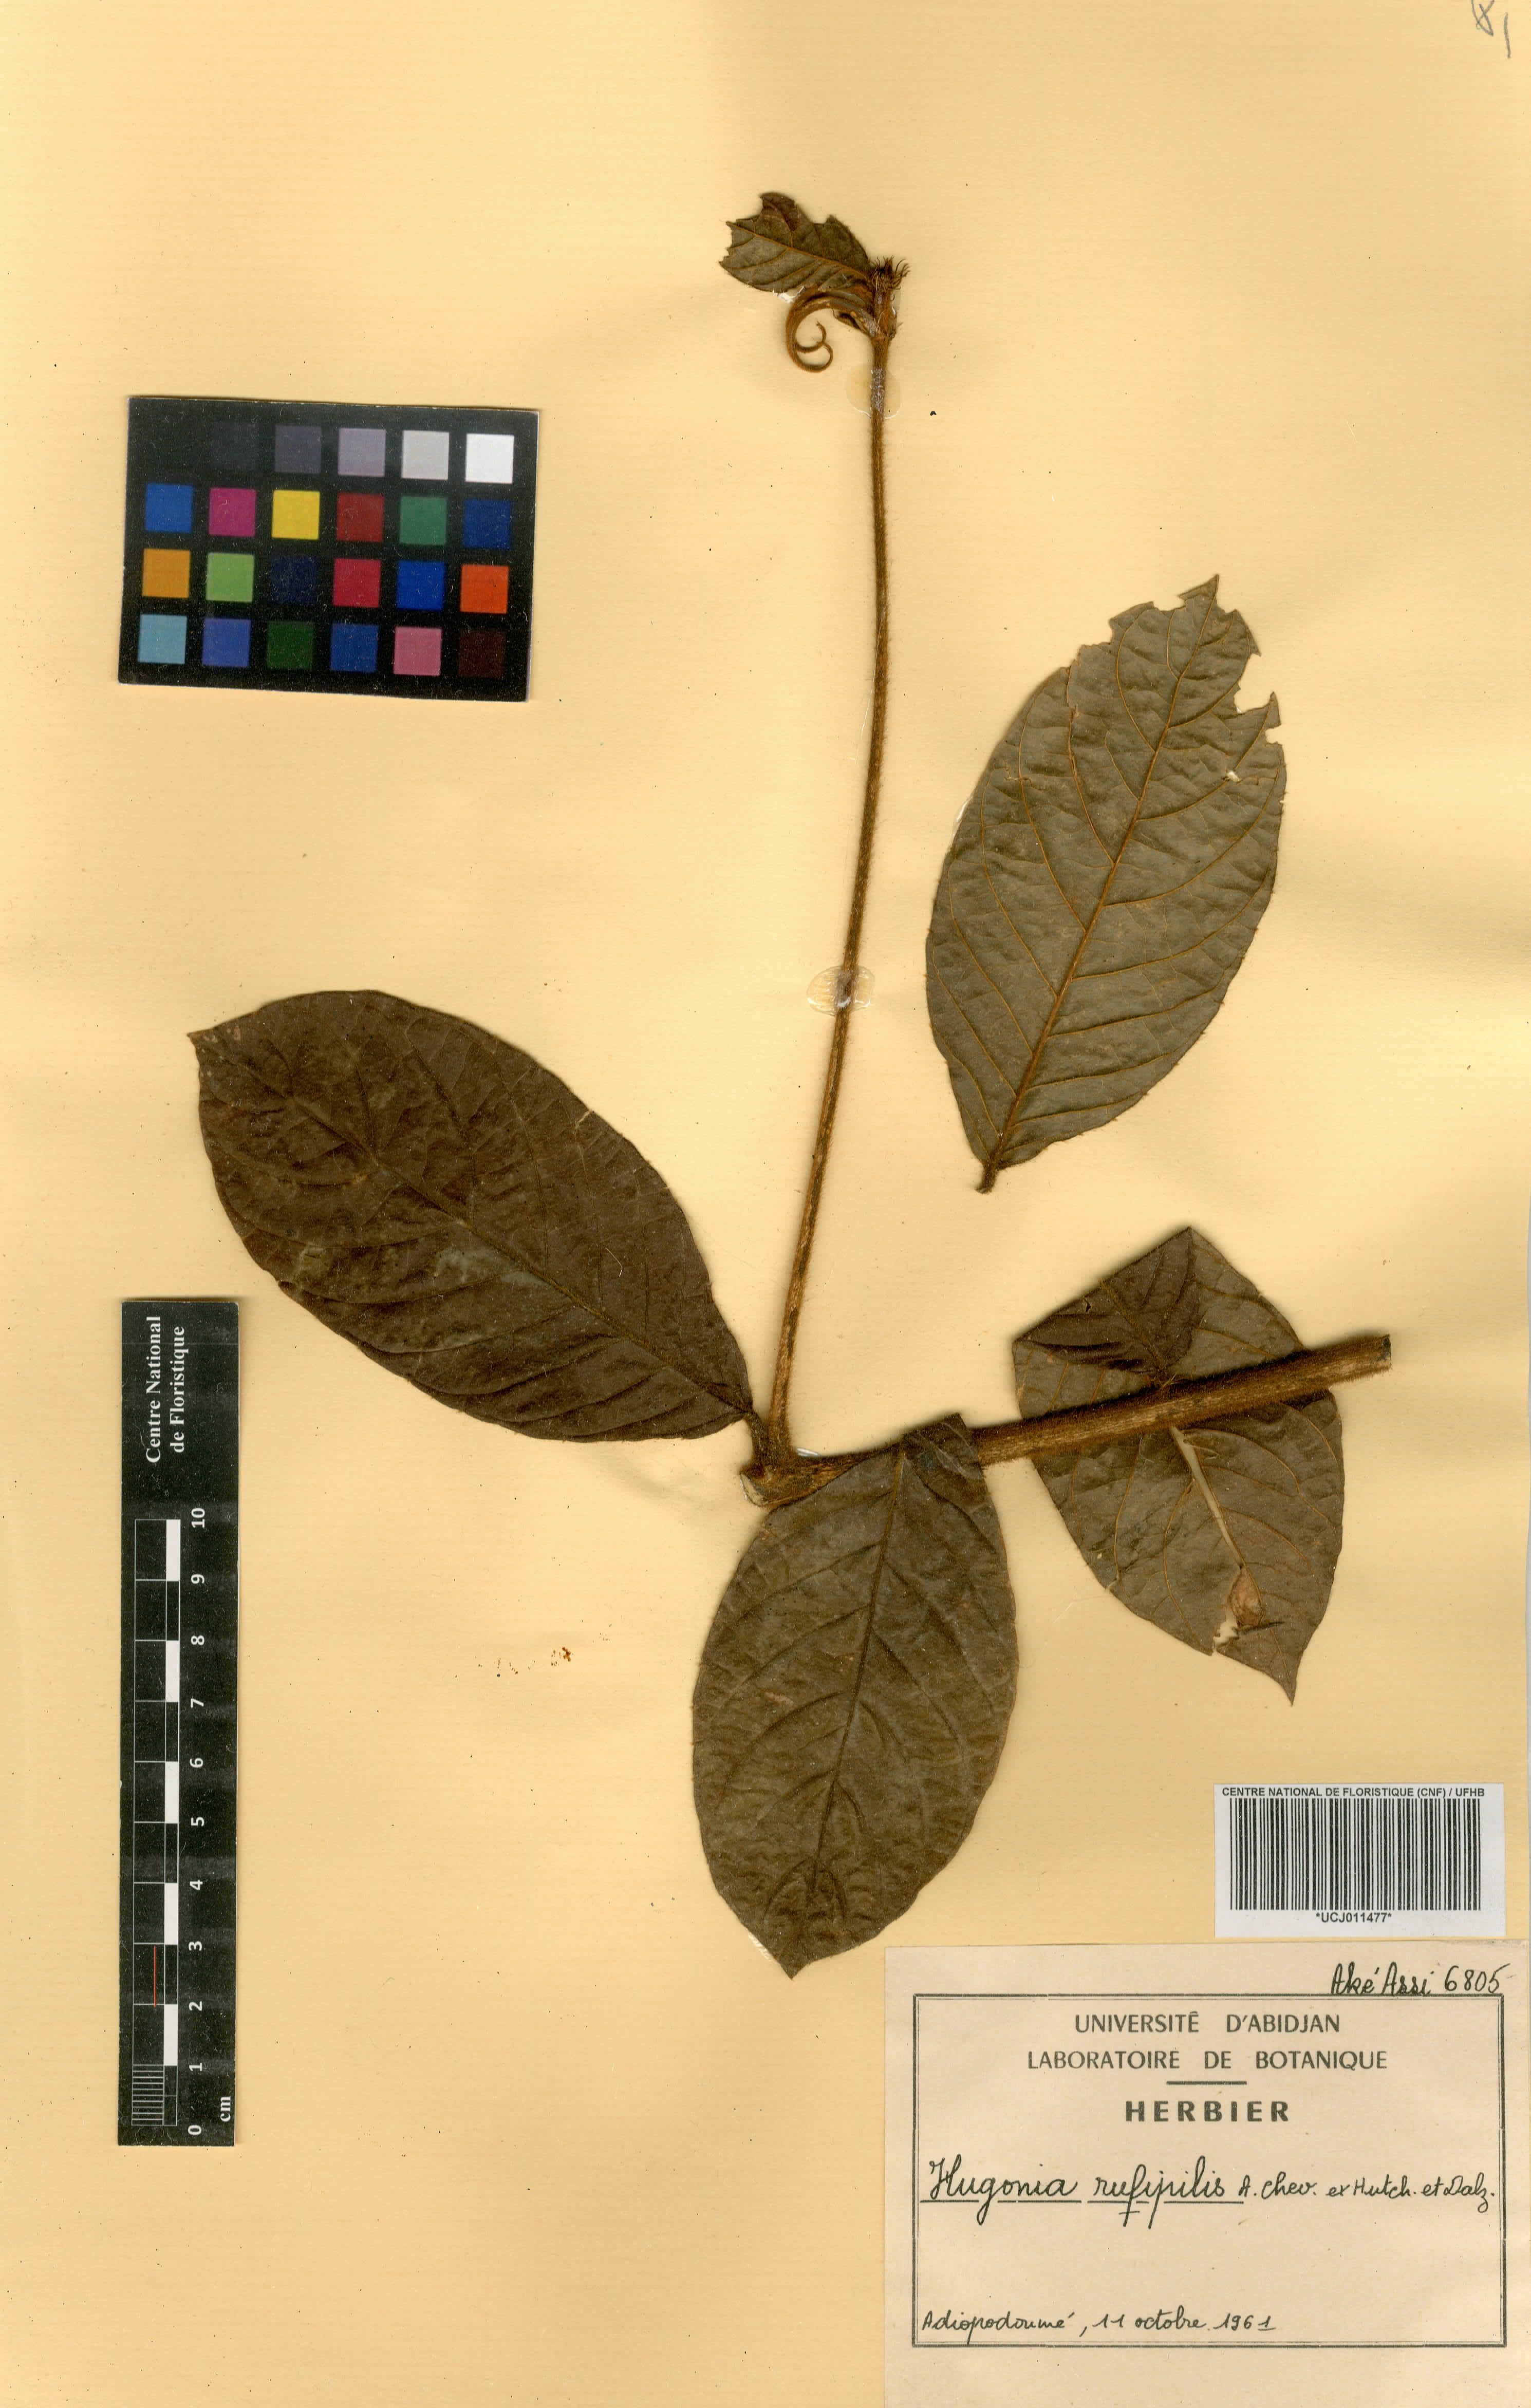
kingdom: Plantae
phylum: Tracheophyta
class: Magnoliopsida
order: Malpighiales
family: Linaceae
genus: Hugonia
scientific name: Hugonia platysepala
